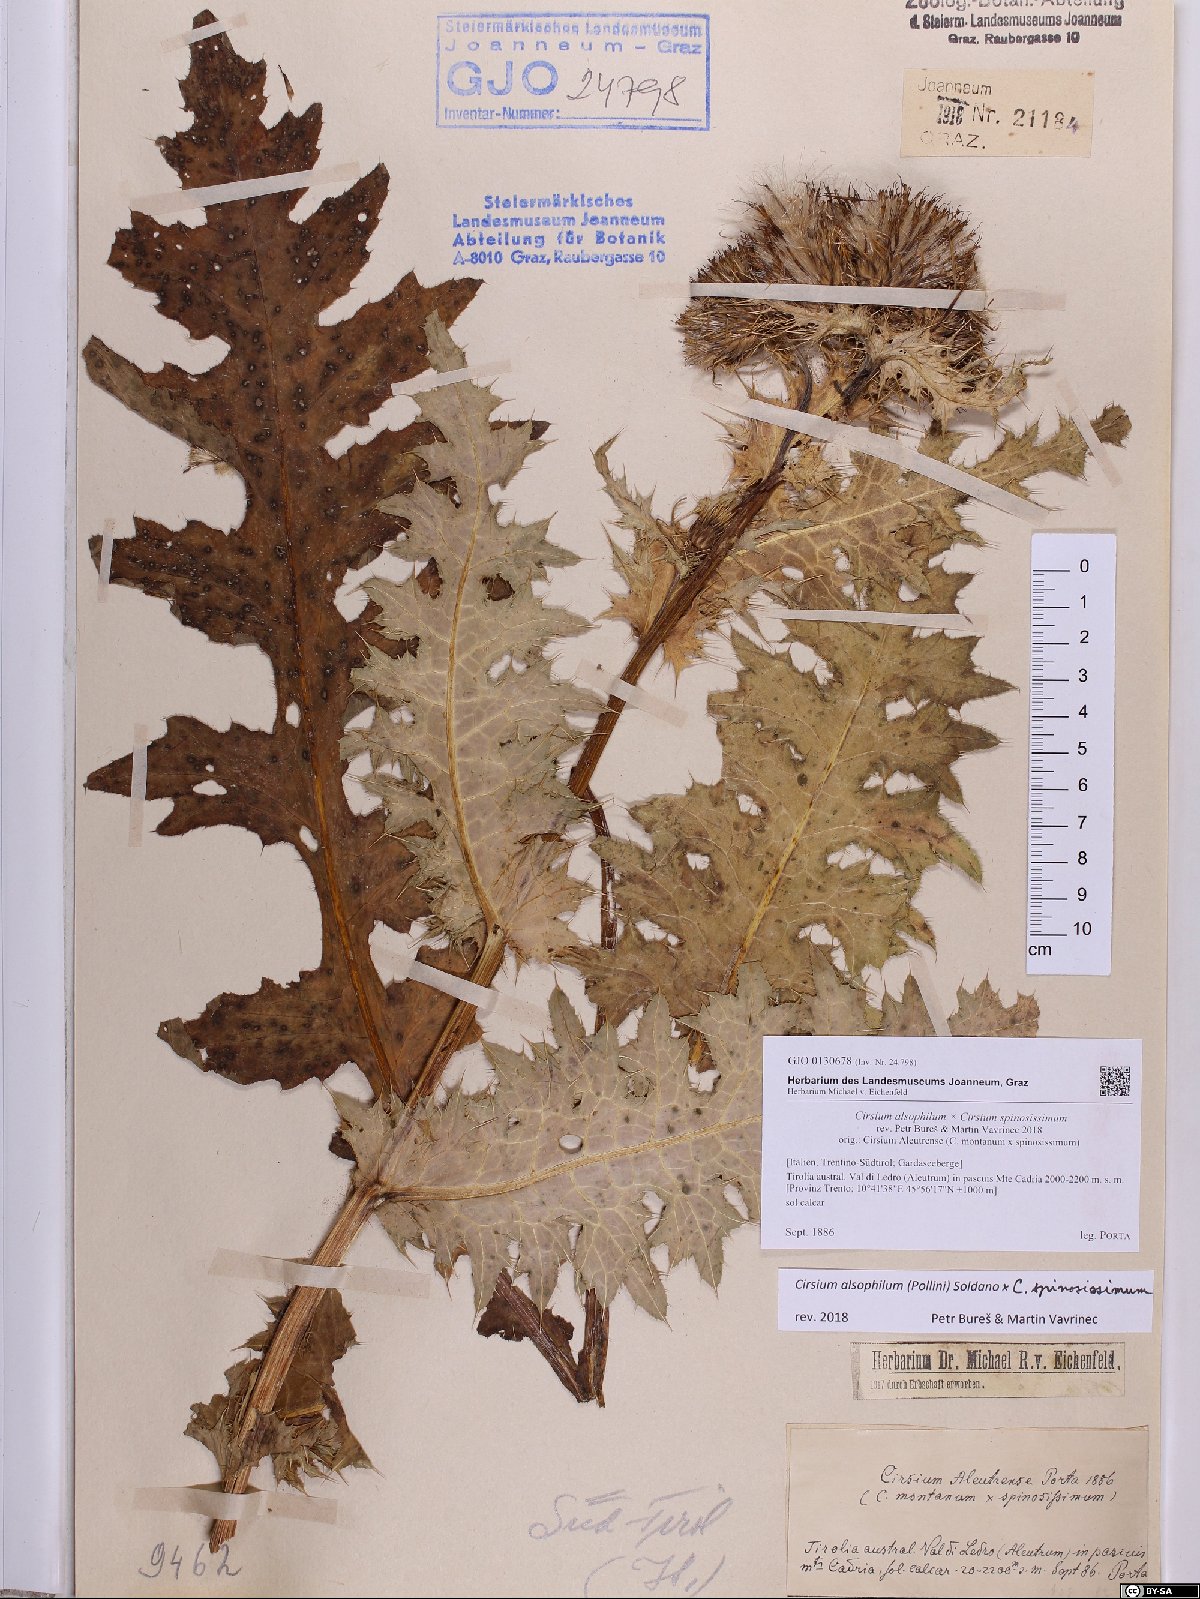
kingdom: Plantae
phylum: Tracheophyta
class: Magnoliopsida
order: Asterales
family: Asteraceae
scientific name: Asteraceae
